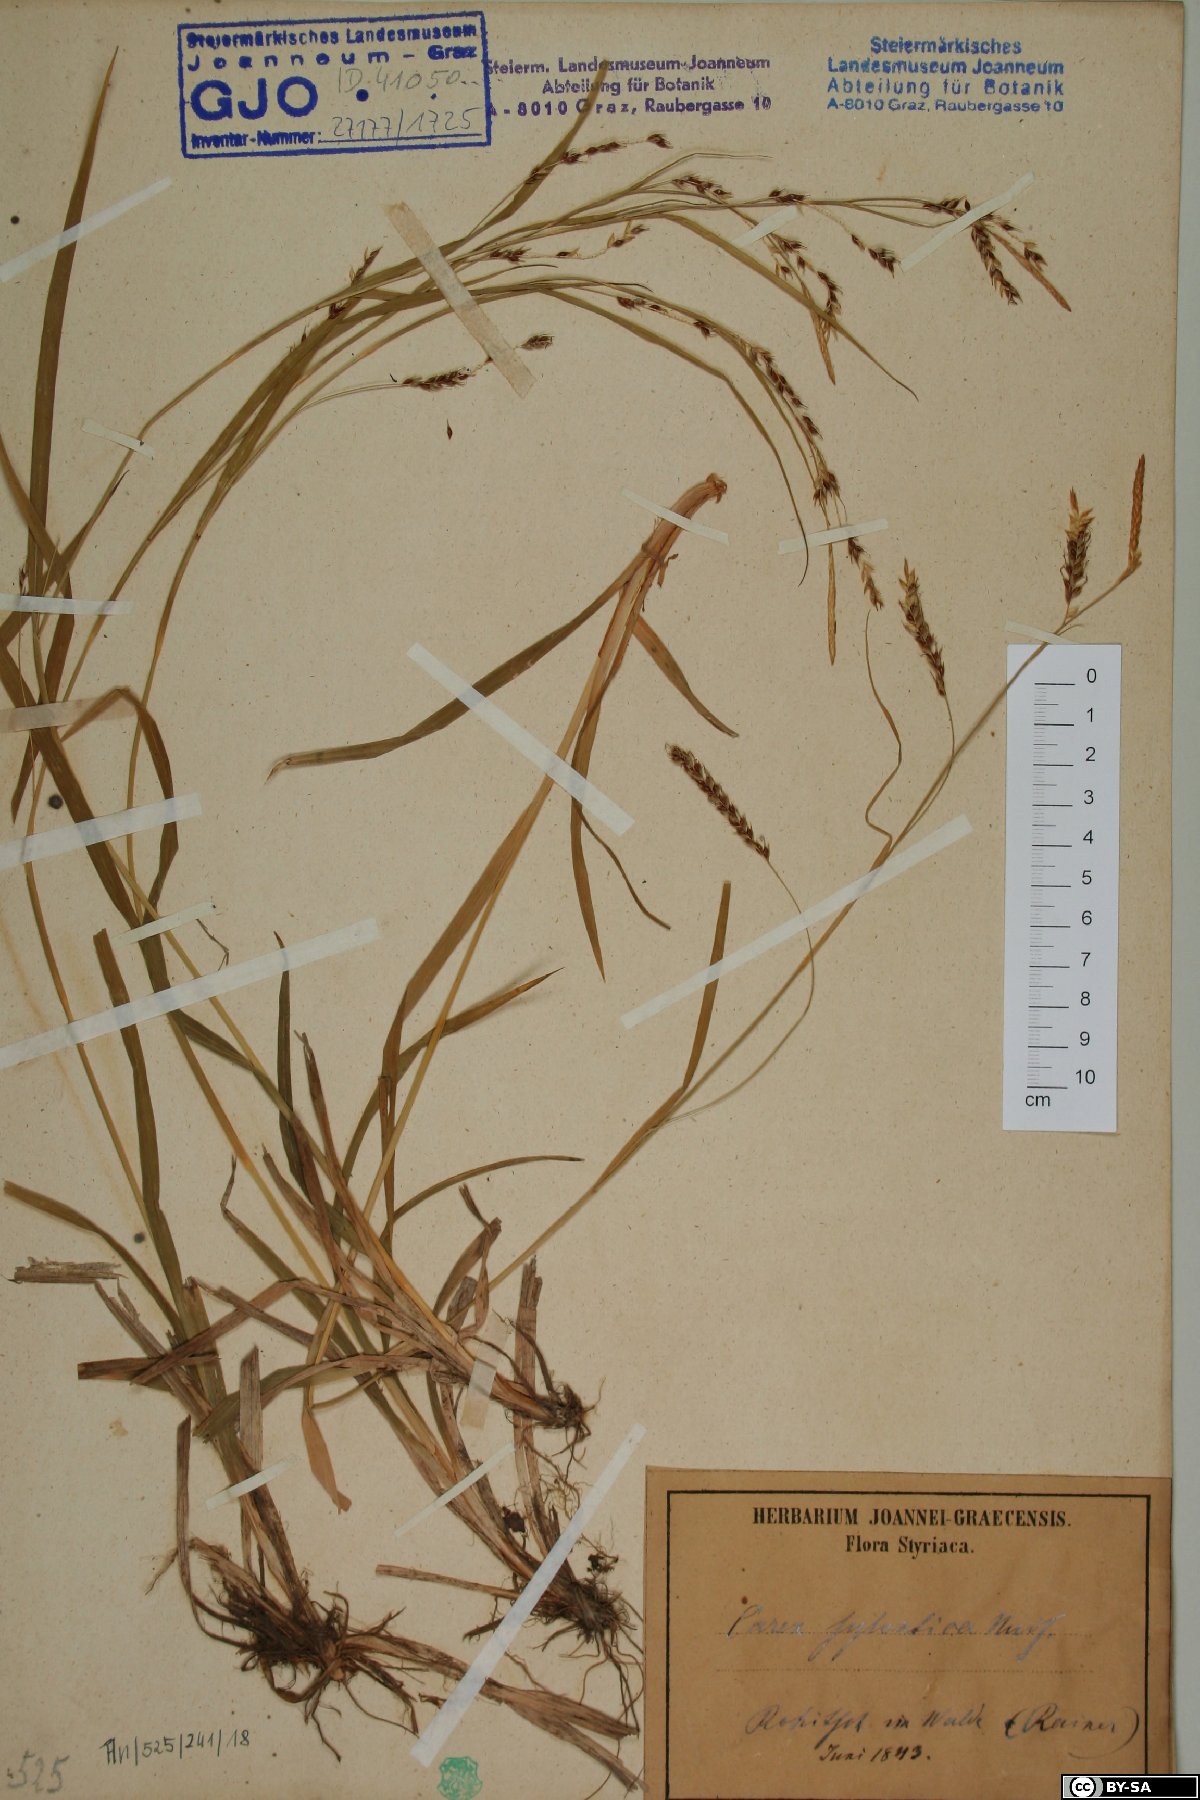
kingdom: Plantae
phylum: Tracheophyta
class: Liliopsida
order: Poales
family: Cyperaceae
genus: Carex
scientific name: Carex sylvatica
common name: Wood-sedge
